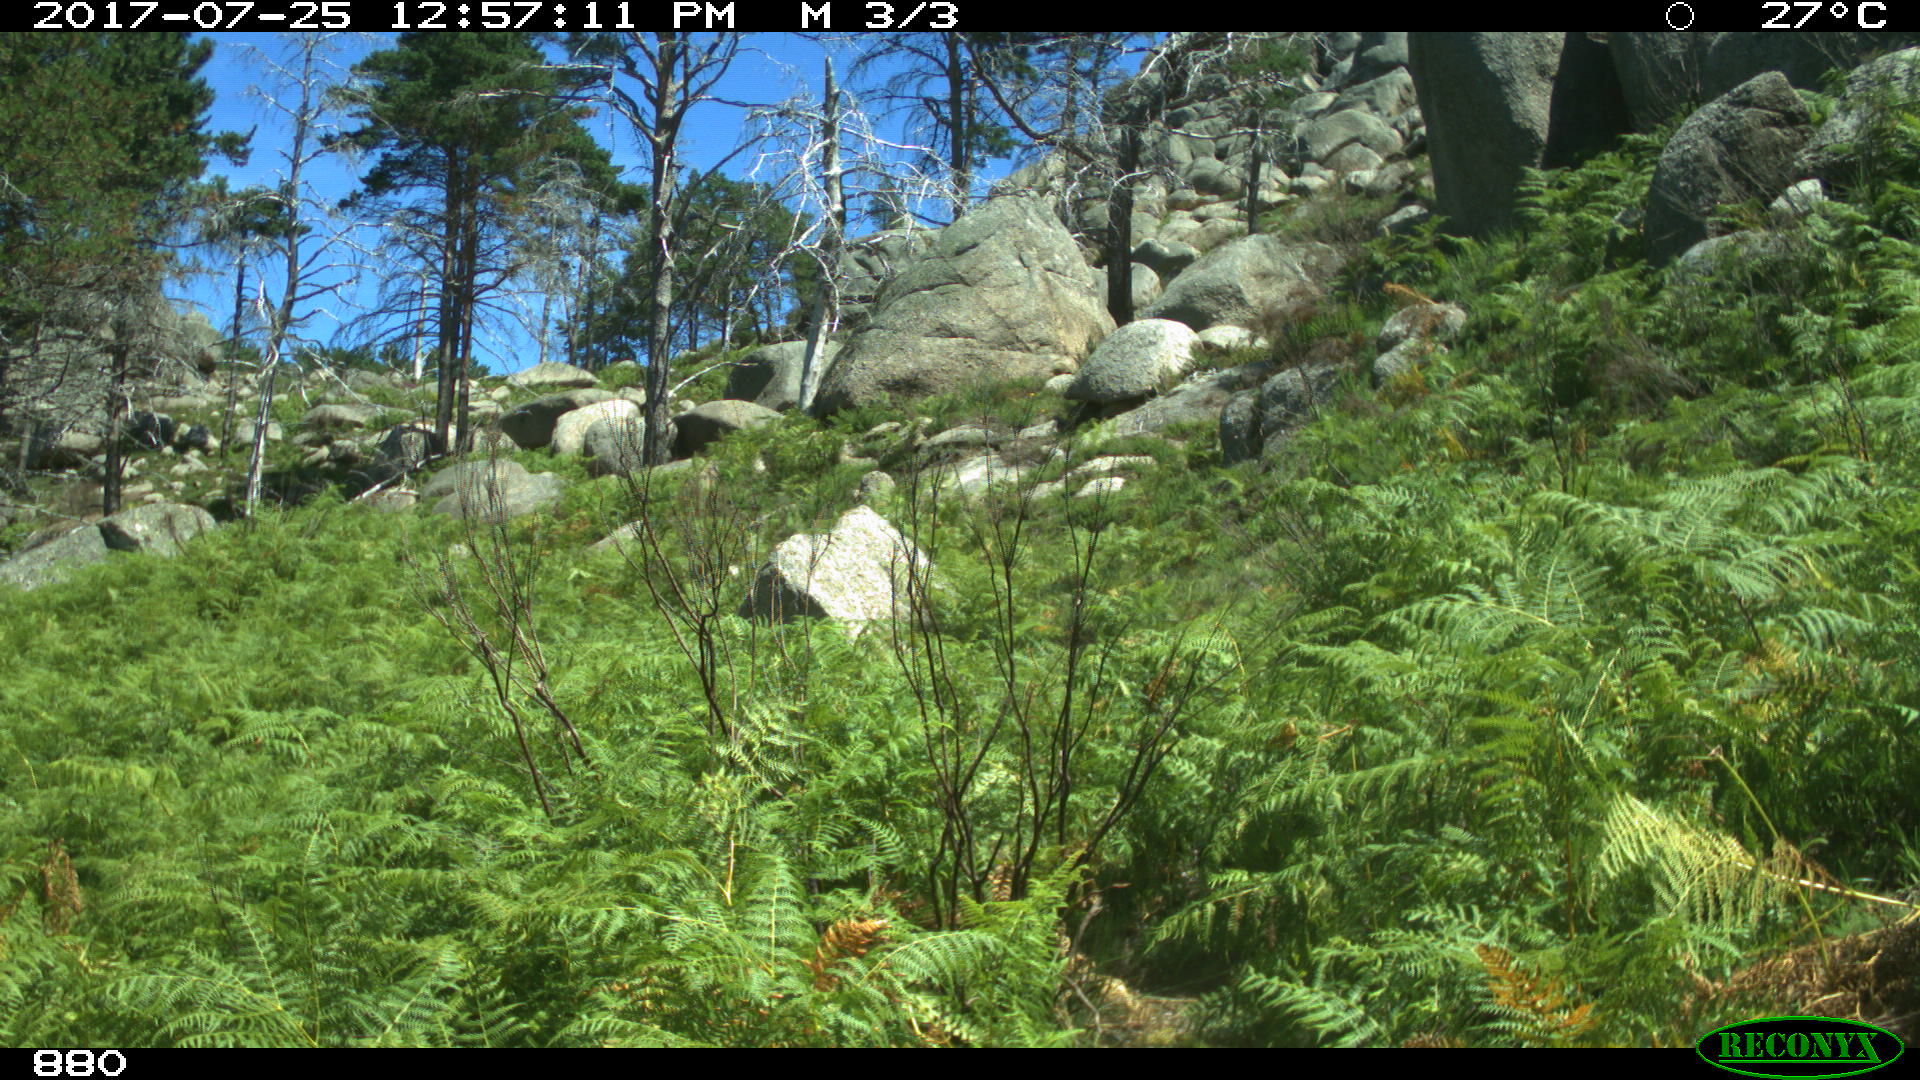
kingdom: Animalia
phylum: Chordata
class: Mammalia
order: Perissodactyla
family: Equidae
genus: Equus
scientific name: Equus caballus
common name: Horse
